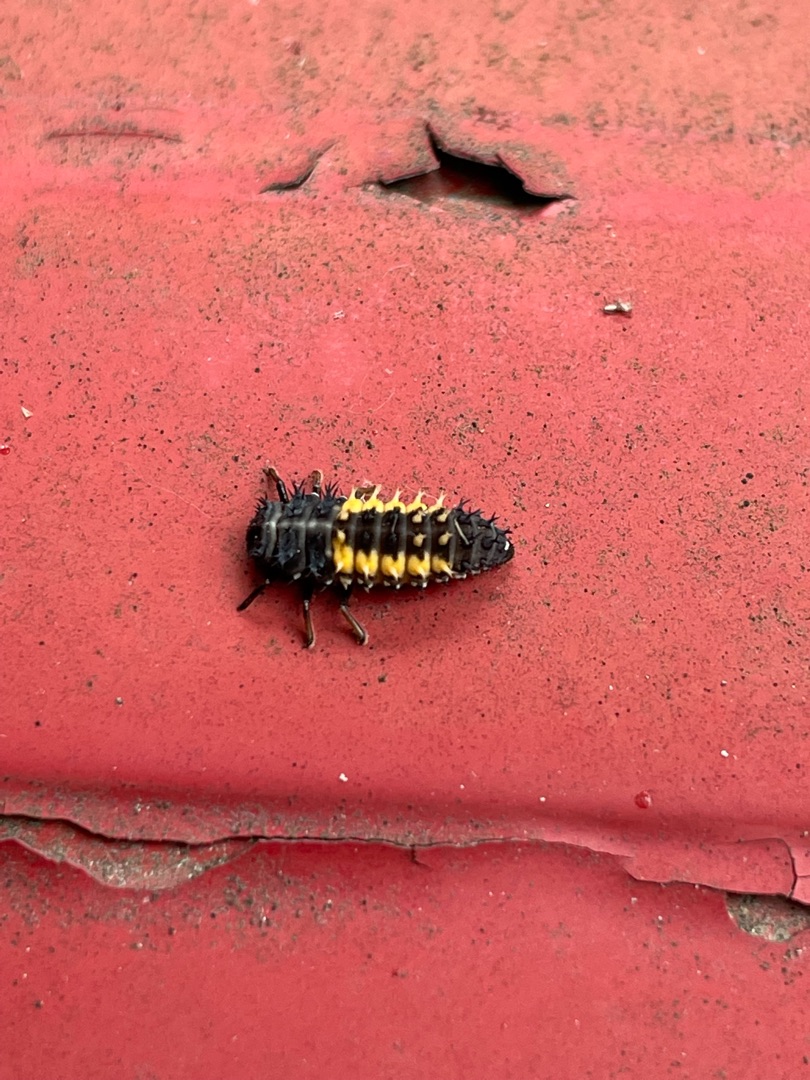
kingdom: Animalia
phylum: Arthropoda
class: Insecta
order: Coleoptera
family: Coccinellidae
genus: Harmonia
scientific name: Harmonia axyridis
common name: Harlekinmariehøne
